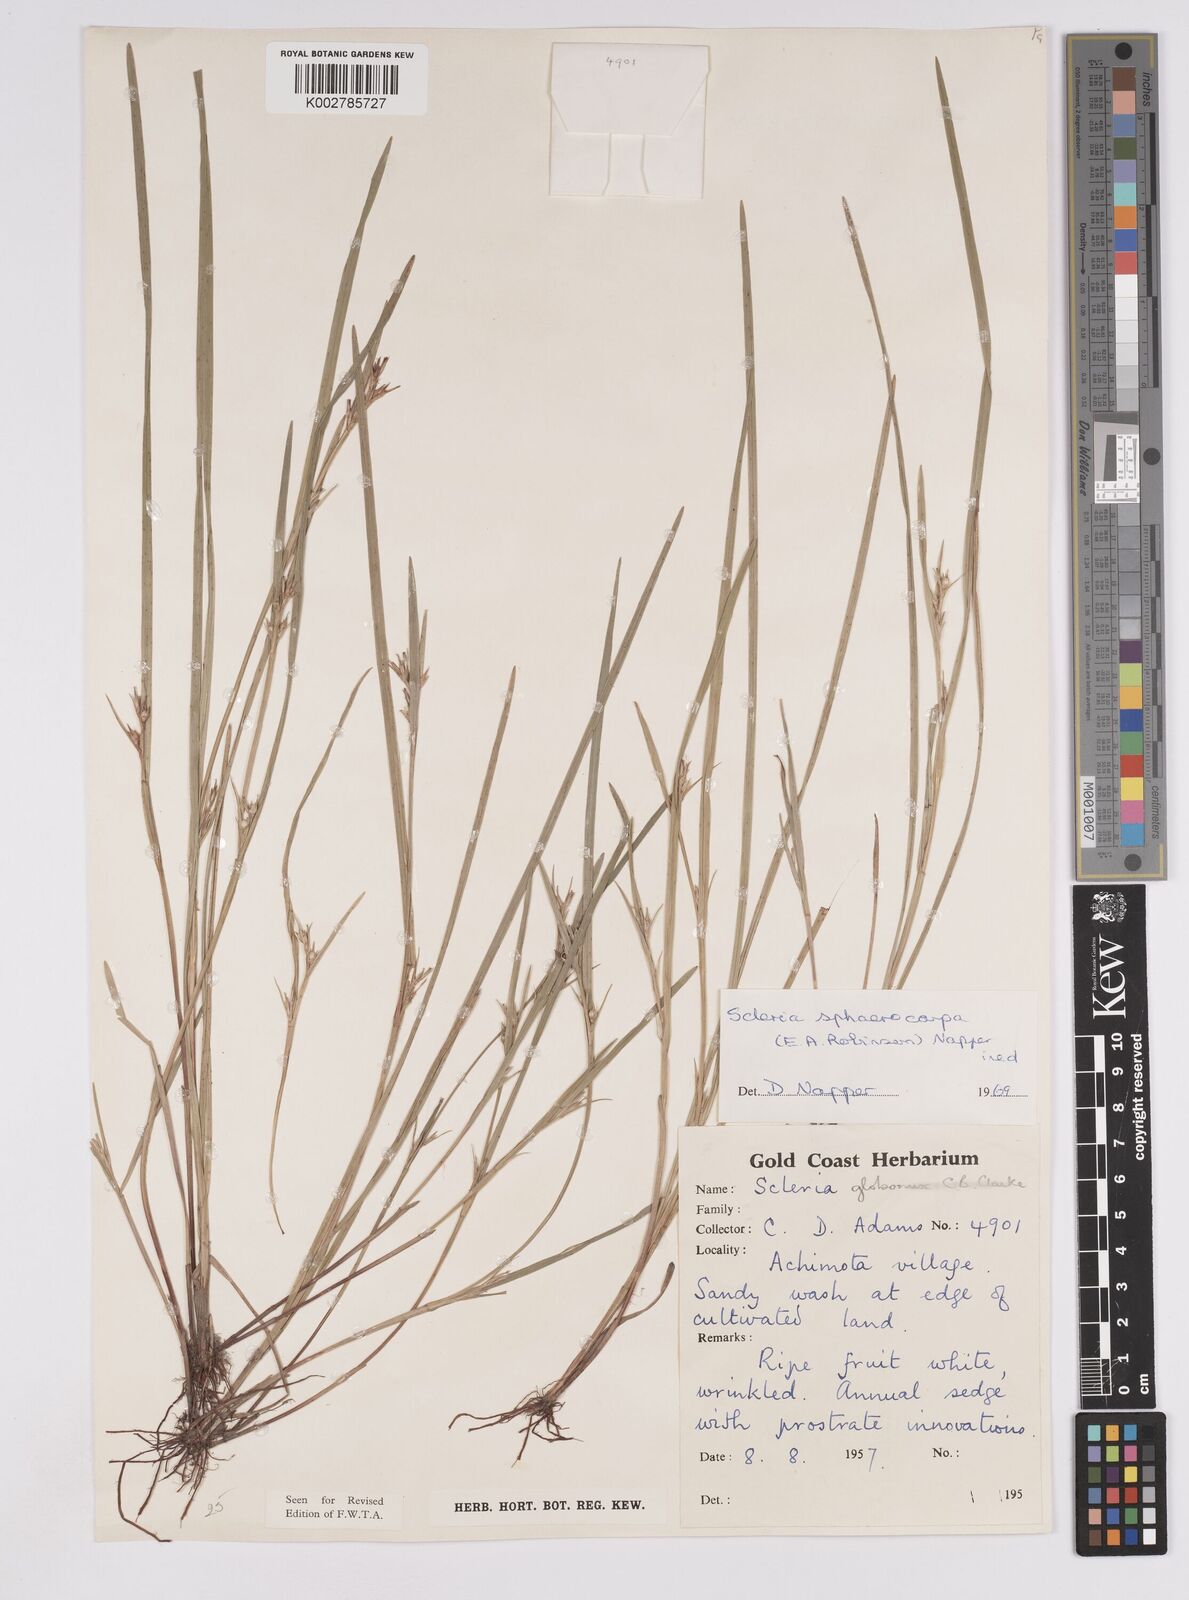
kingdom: Plantae
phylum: Tracheophyta
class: Liliopsida
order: Poales
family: Cyperaceae
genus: Scleria
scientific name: Scleria tessellata
